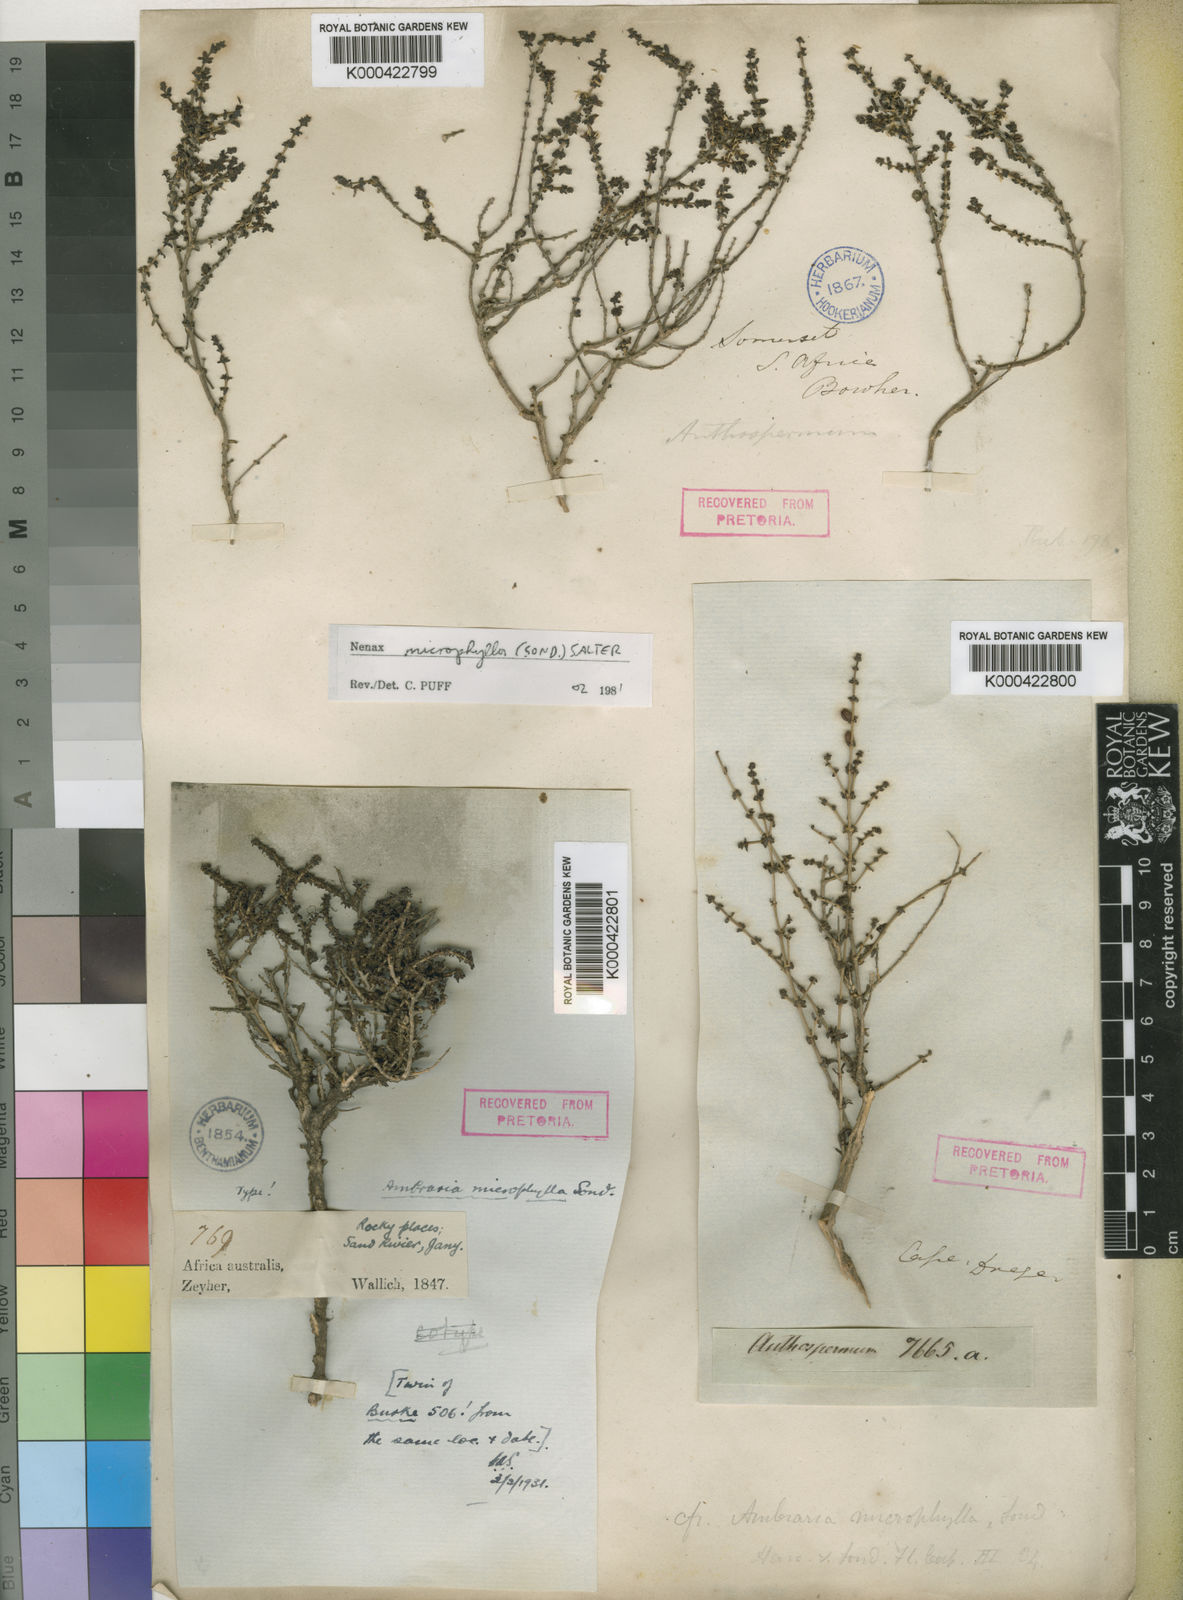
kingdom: Plantae
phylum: Tracheophyta
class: Magnoliopsida
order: Gentianales
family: Rubiaceae
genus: Nenax
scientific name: Nenax microphylla
